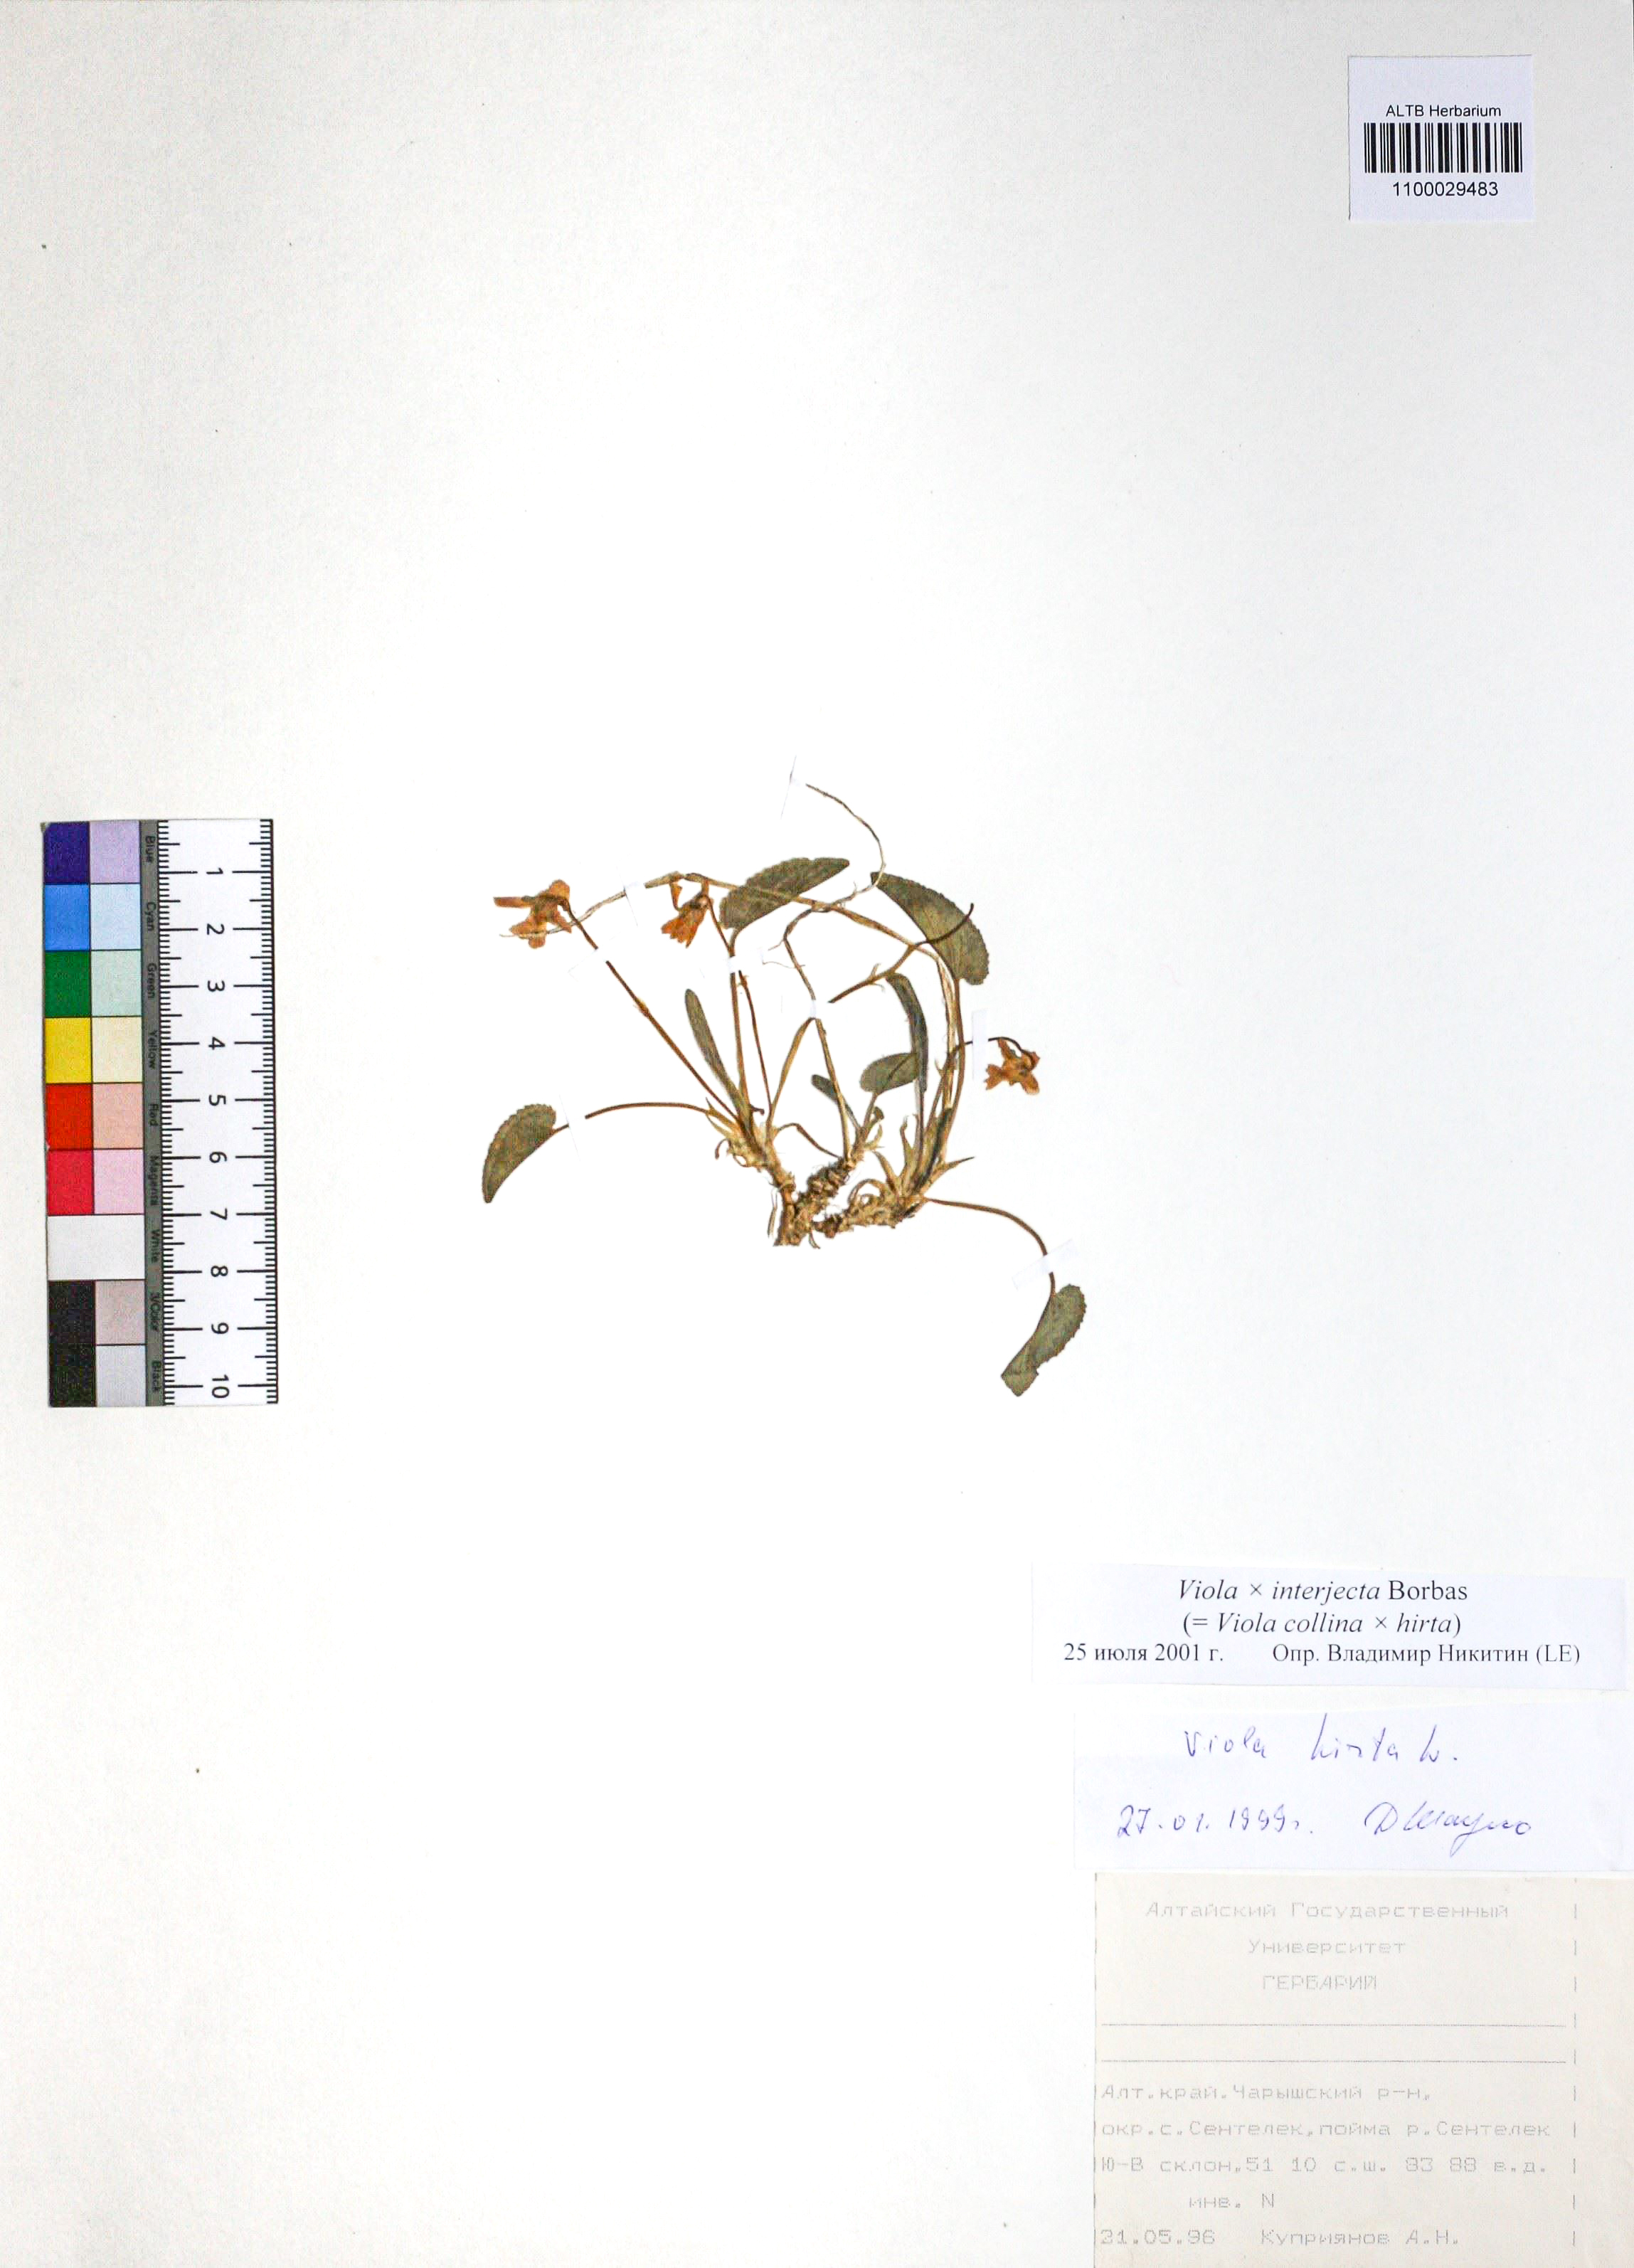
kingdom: Plantae
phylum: Tracheophyta
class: Magnoliopsida
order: Malpighiales
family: Violaceae
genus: Viola
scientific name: Viola interjecta
